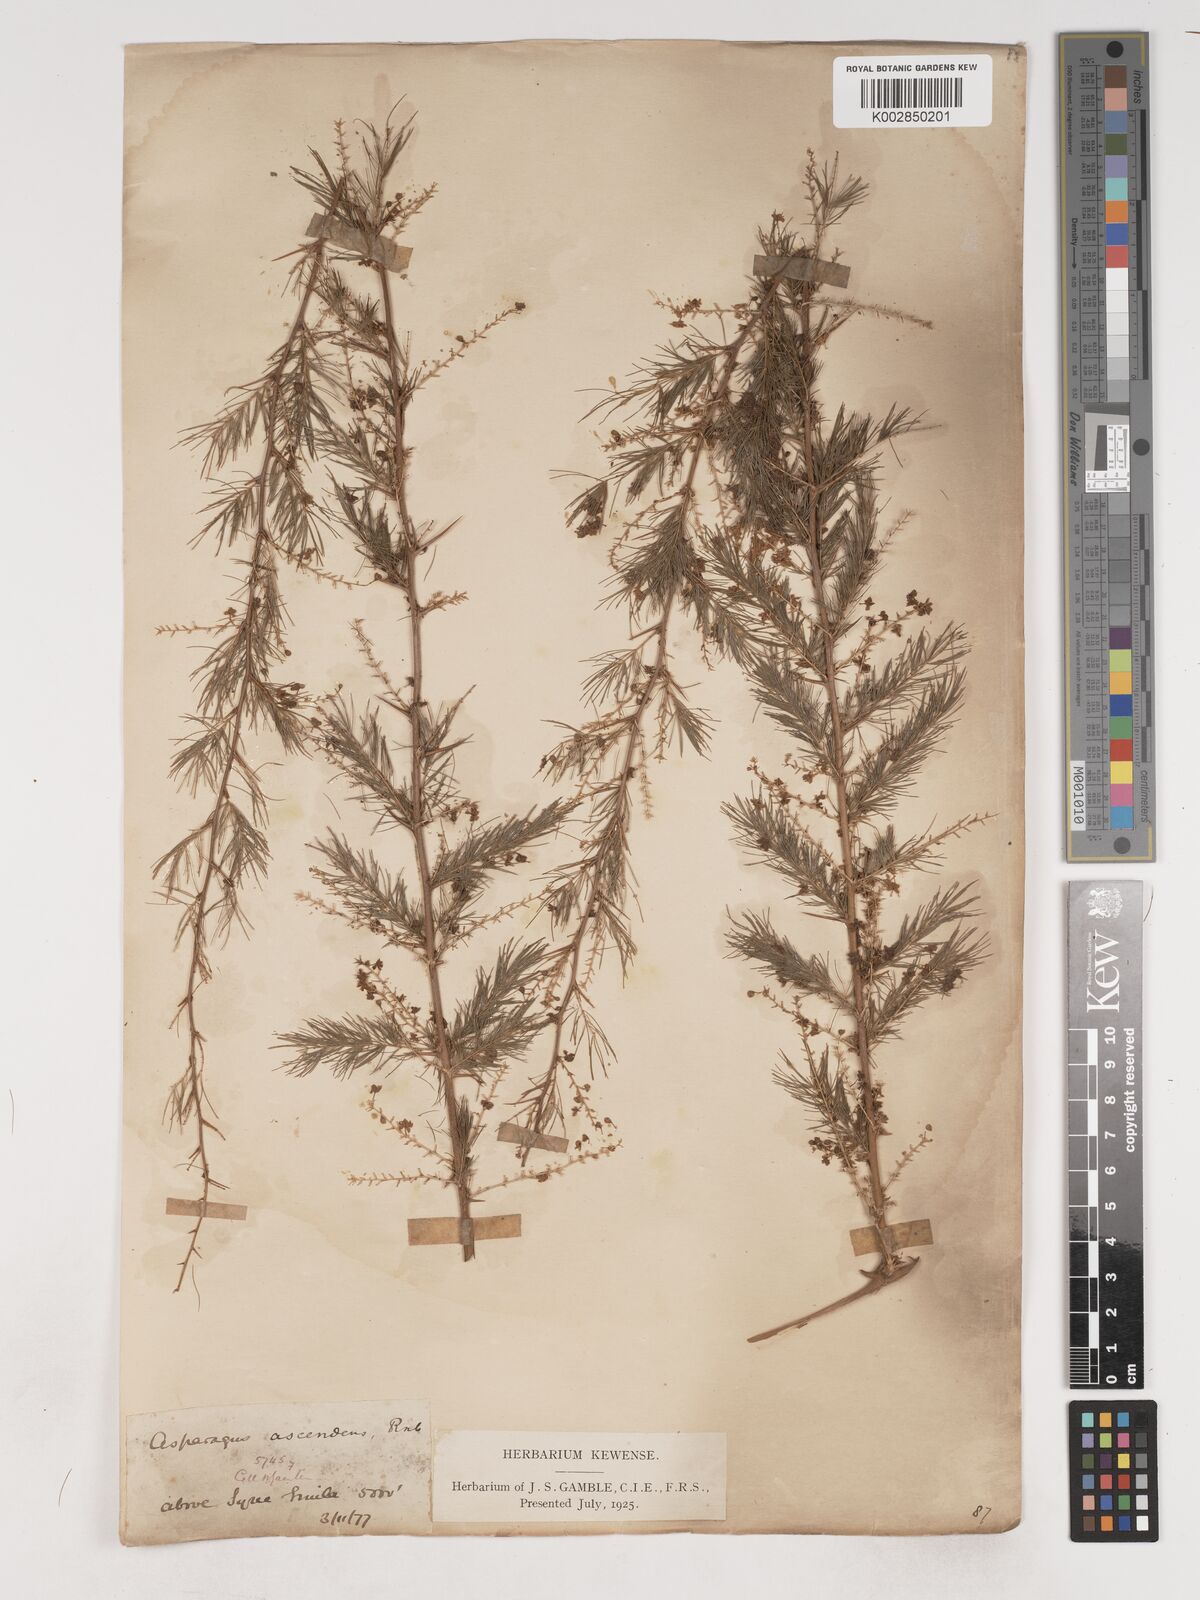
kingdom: Plantae
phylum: Tracheophyta
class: Liliopsida
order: Asparagales
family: Asparagaceae
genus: Asparagus
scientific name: Asparagus adscendens
